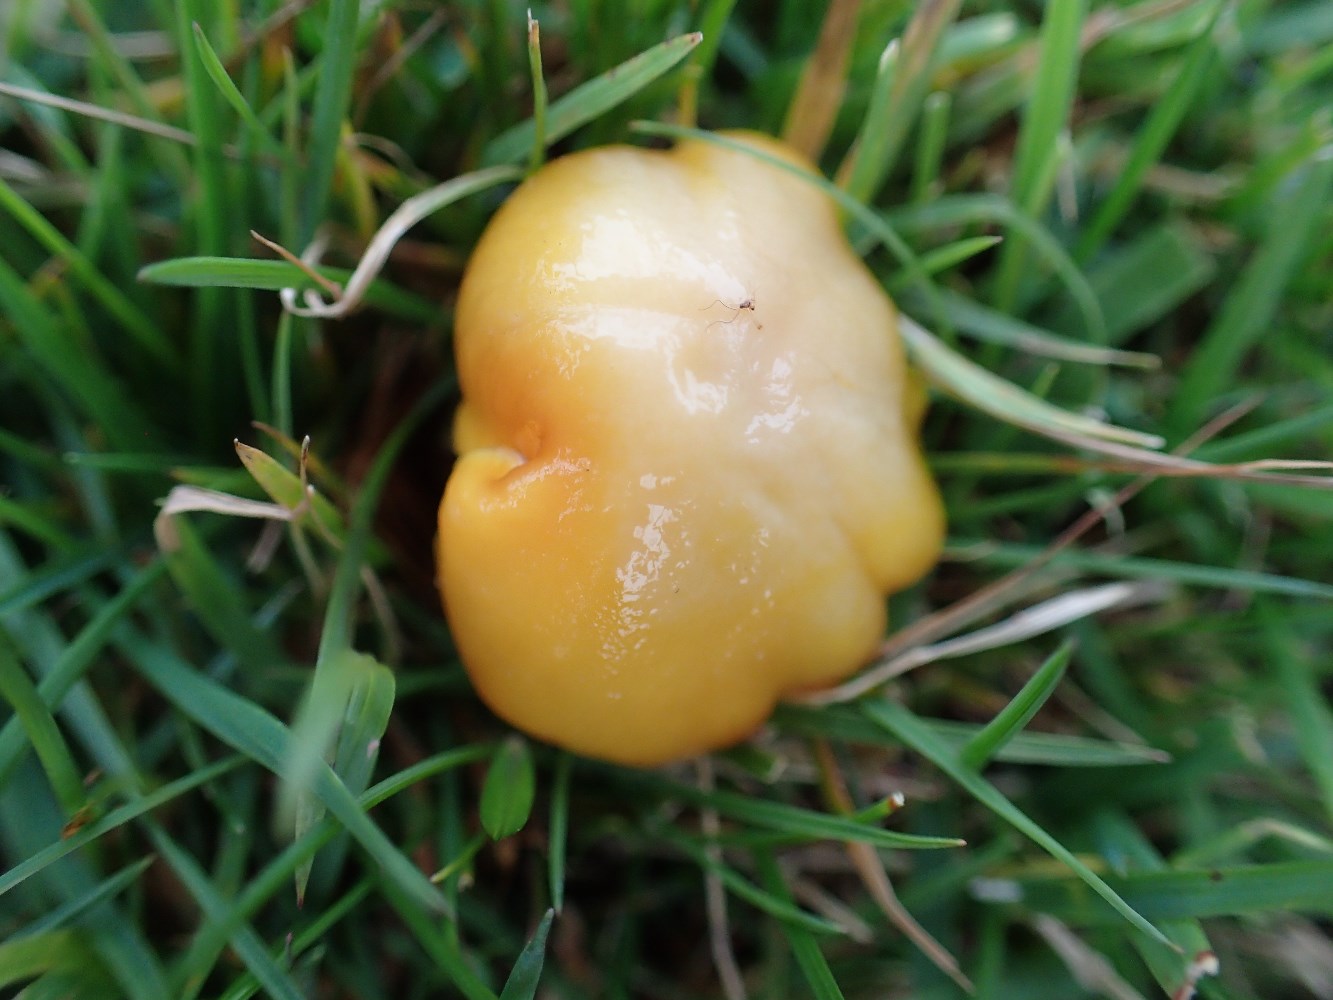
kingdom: Fungi
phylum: Basidiomycota
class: Agaricomycetes
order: Agaricales
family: Hygrophoraceae
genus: Hygrocybe
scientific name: Hygrocybe chlorophana
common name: gul vokshat
